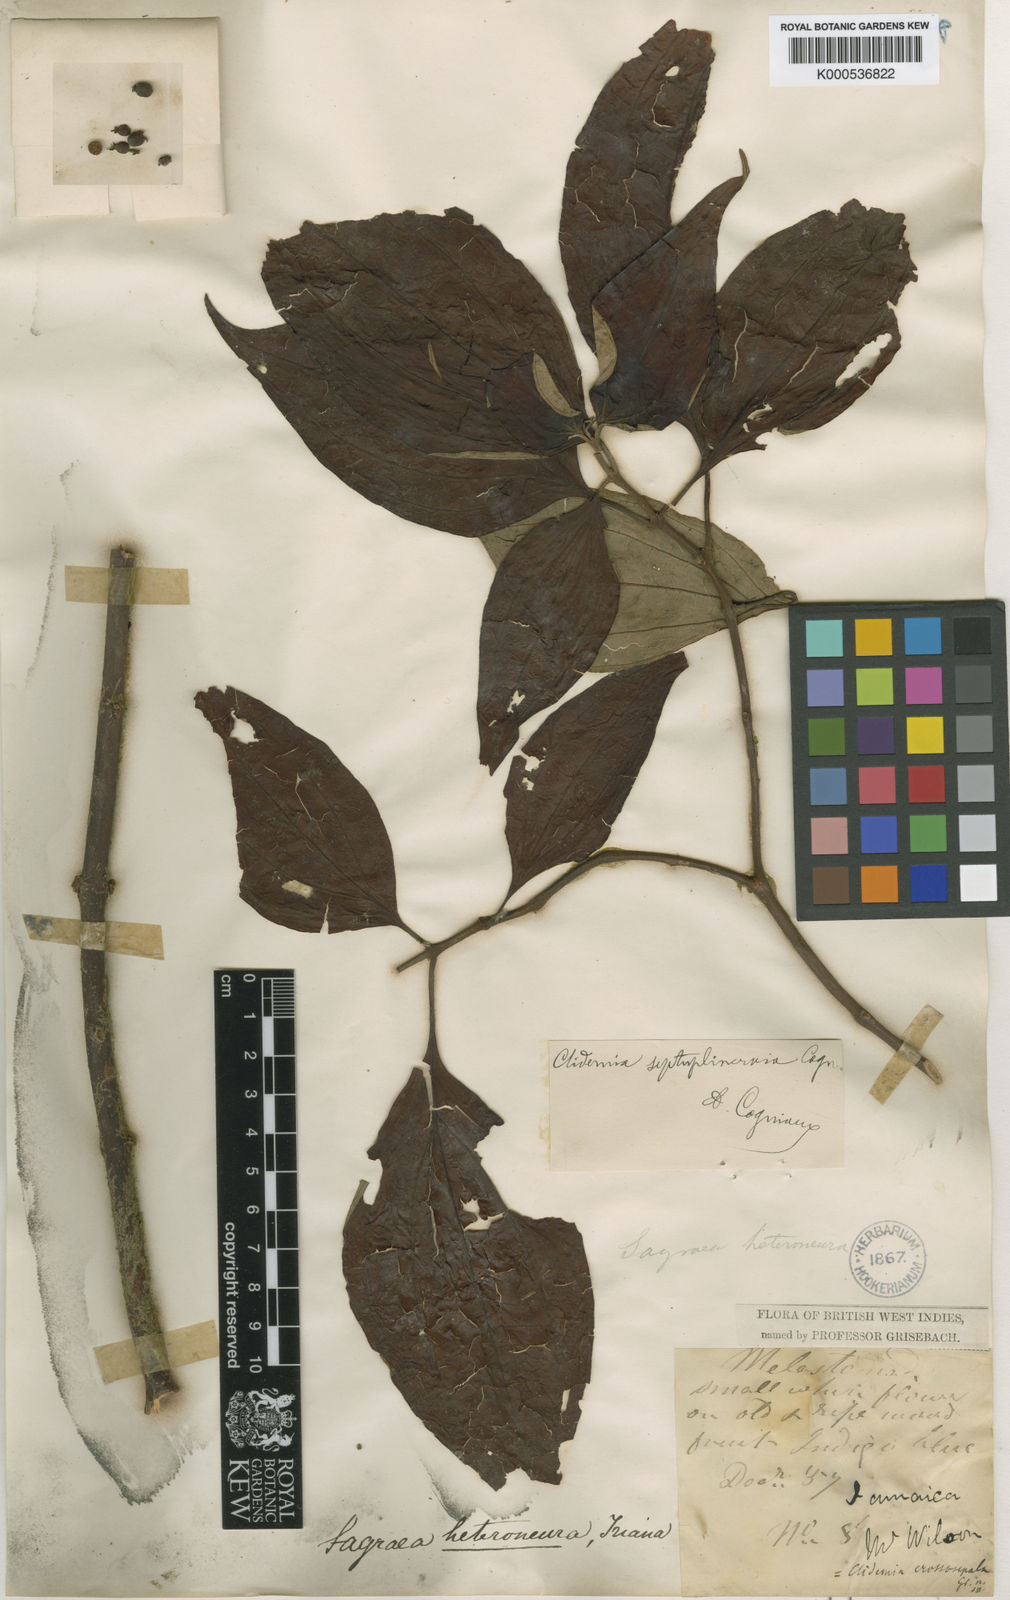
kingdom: Plantae
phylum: Tracheophyta
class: Magnoliopsida
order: Myrtales
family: Melastomataceae
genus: Miconia
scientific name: Miconia trichocalyx
